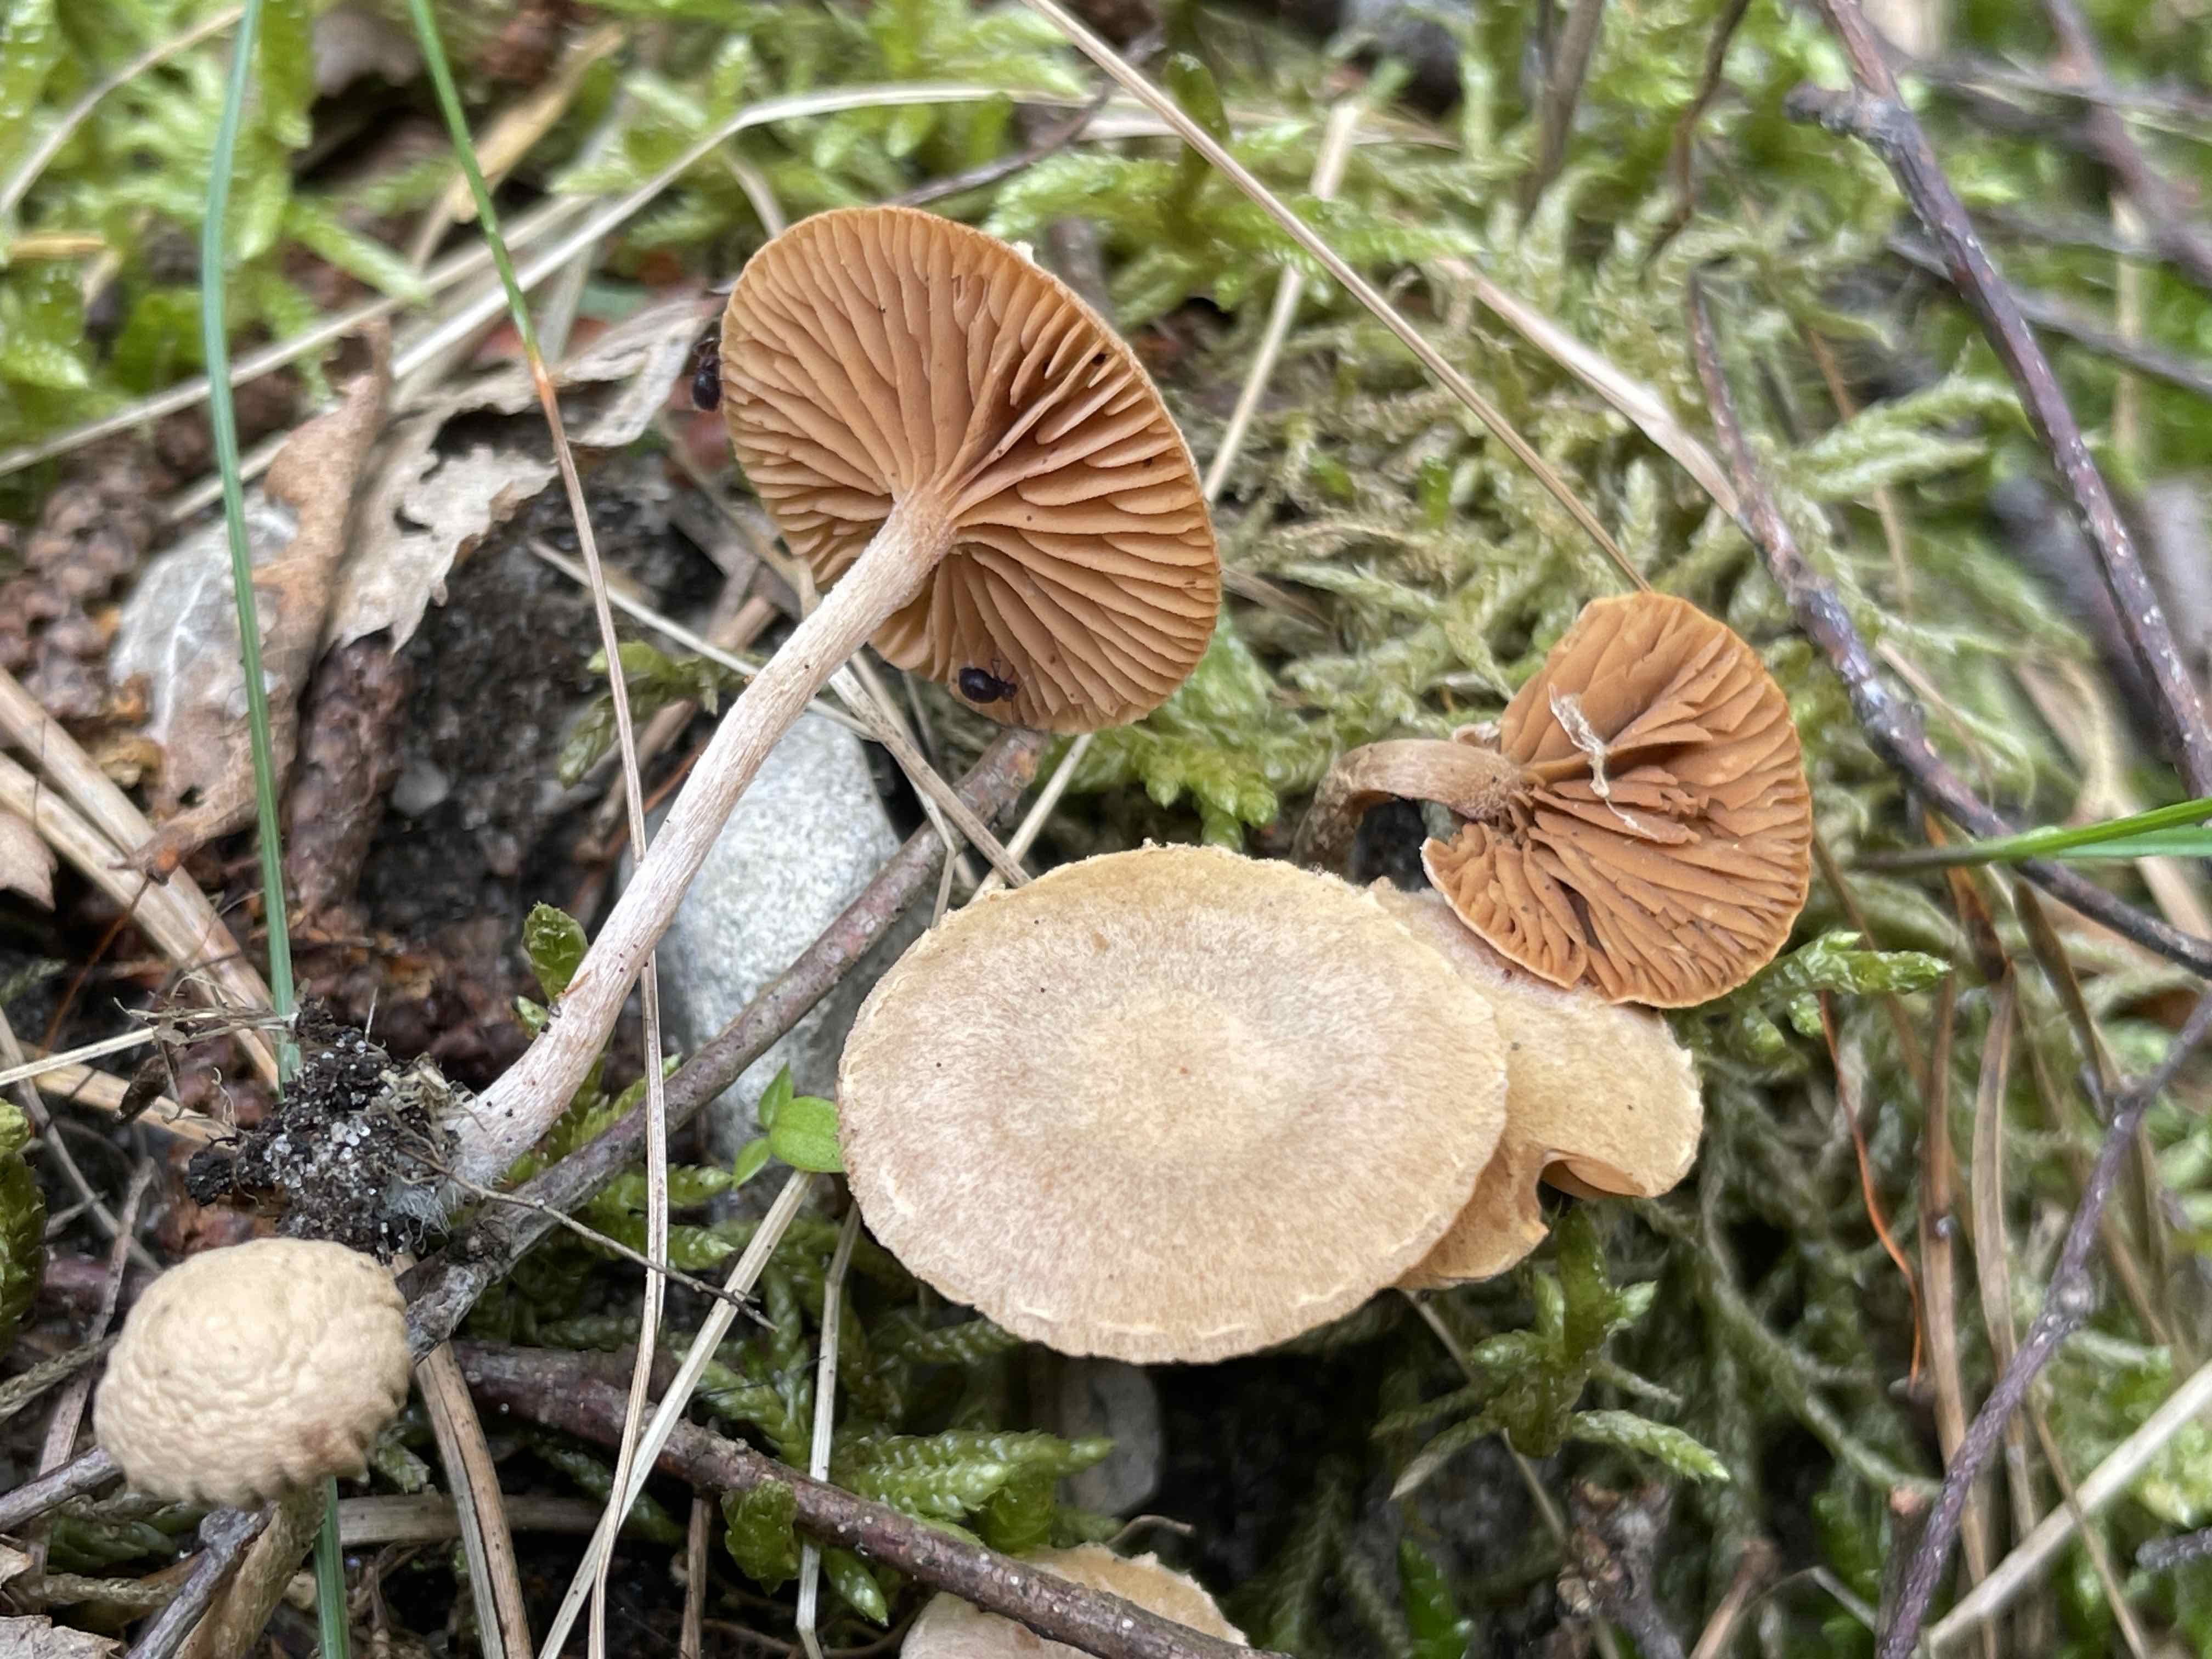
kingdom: Fungi
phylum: Basidiomycota
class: Agaricomycetes
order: Agaricales
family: Tubariaceae
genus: Tubaria
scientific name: Tubaria conspersa
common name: bleg fnughat
